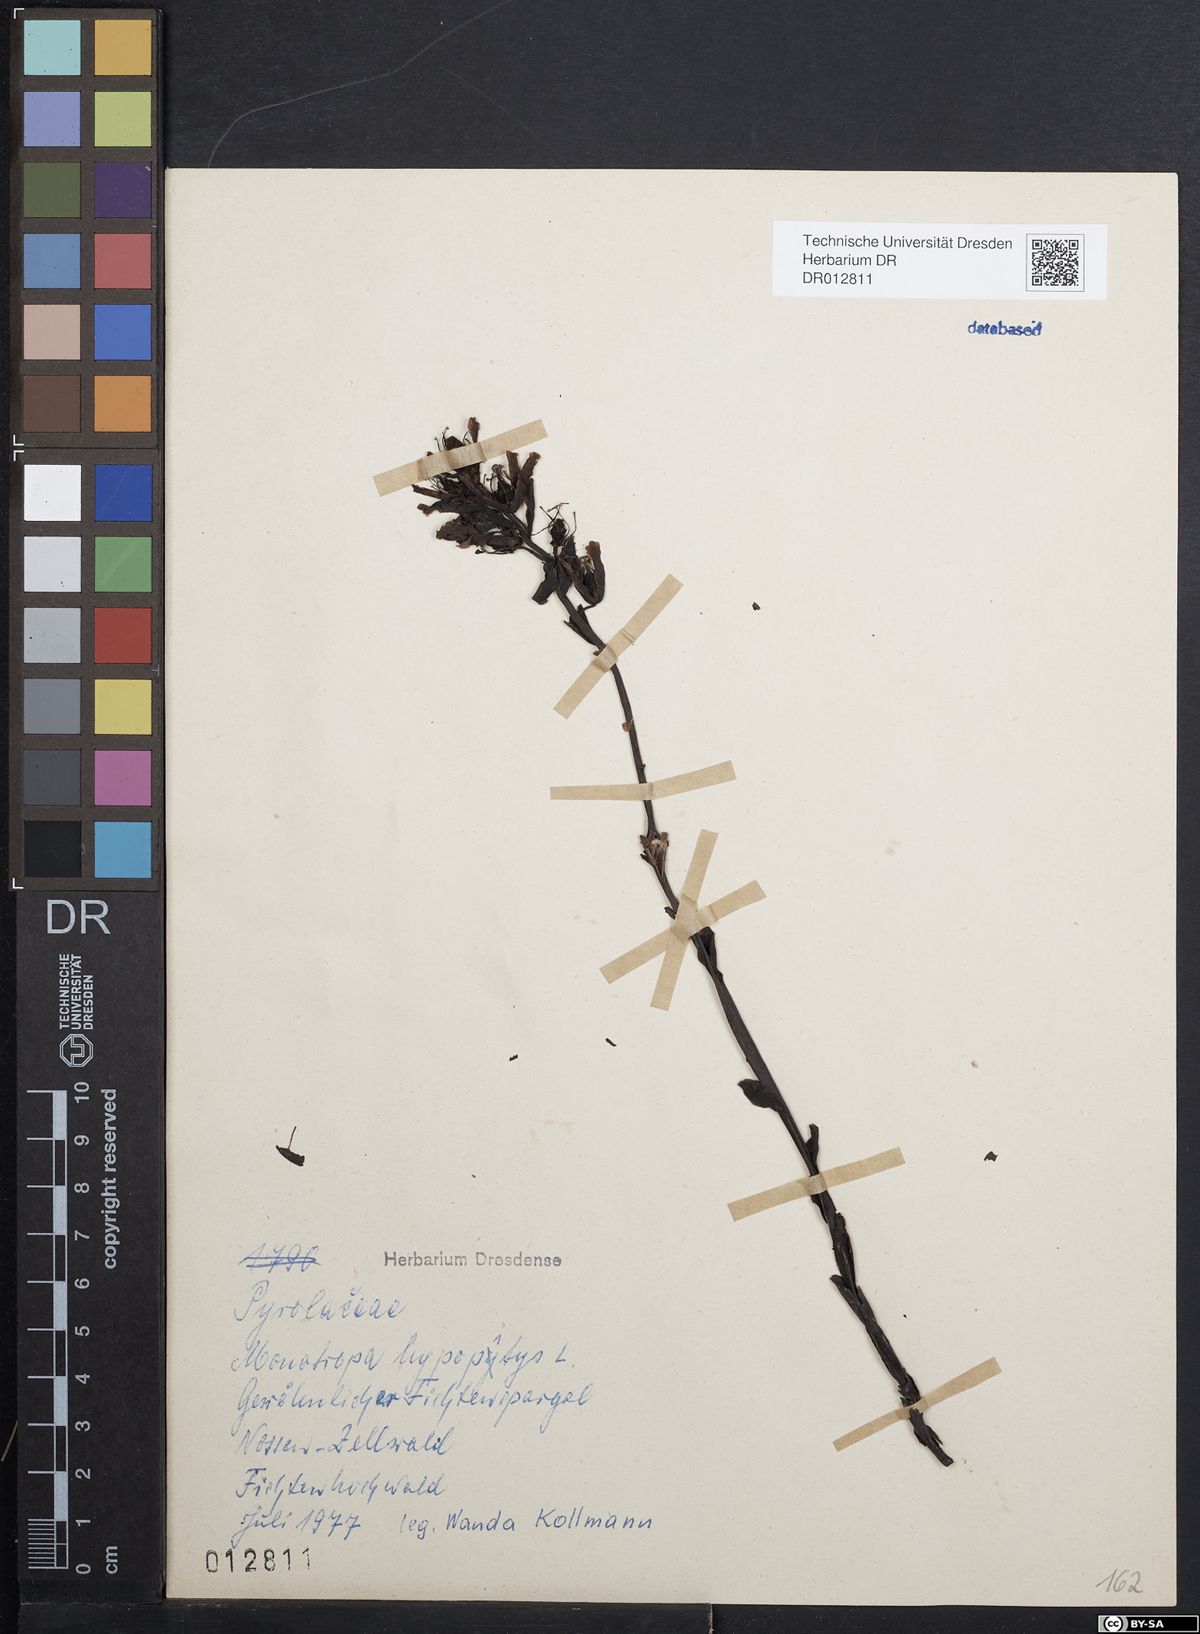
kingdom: Plantae
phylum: Tracheophyta
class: Magnoliopsida
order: Ericales
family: Ericaceae
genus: Hypopitys
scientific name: Hypopitys monotropa
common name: Yellow bird's-nest
